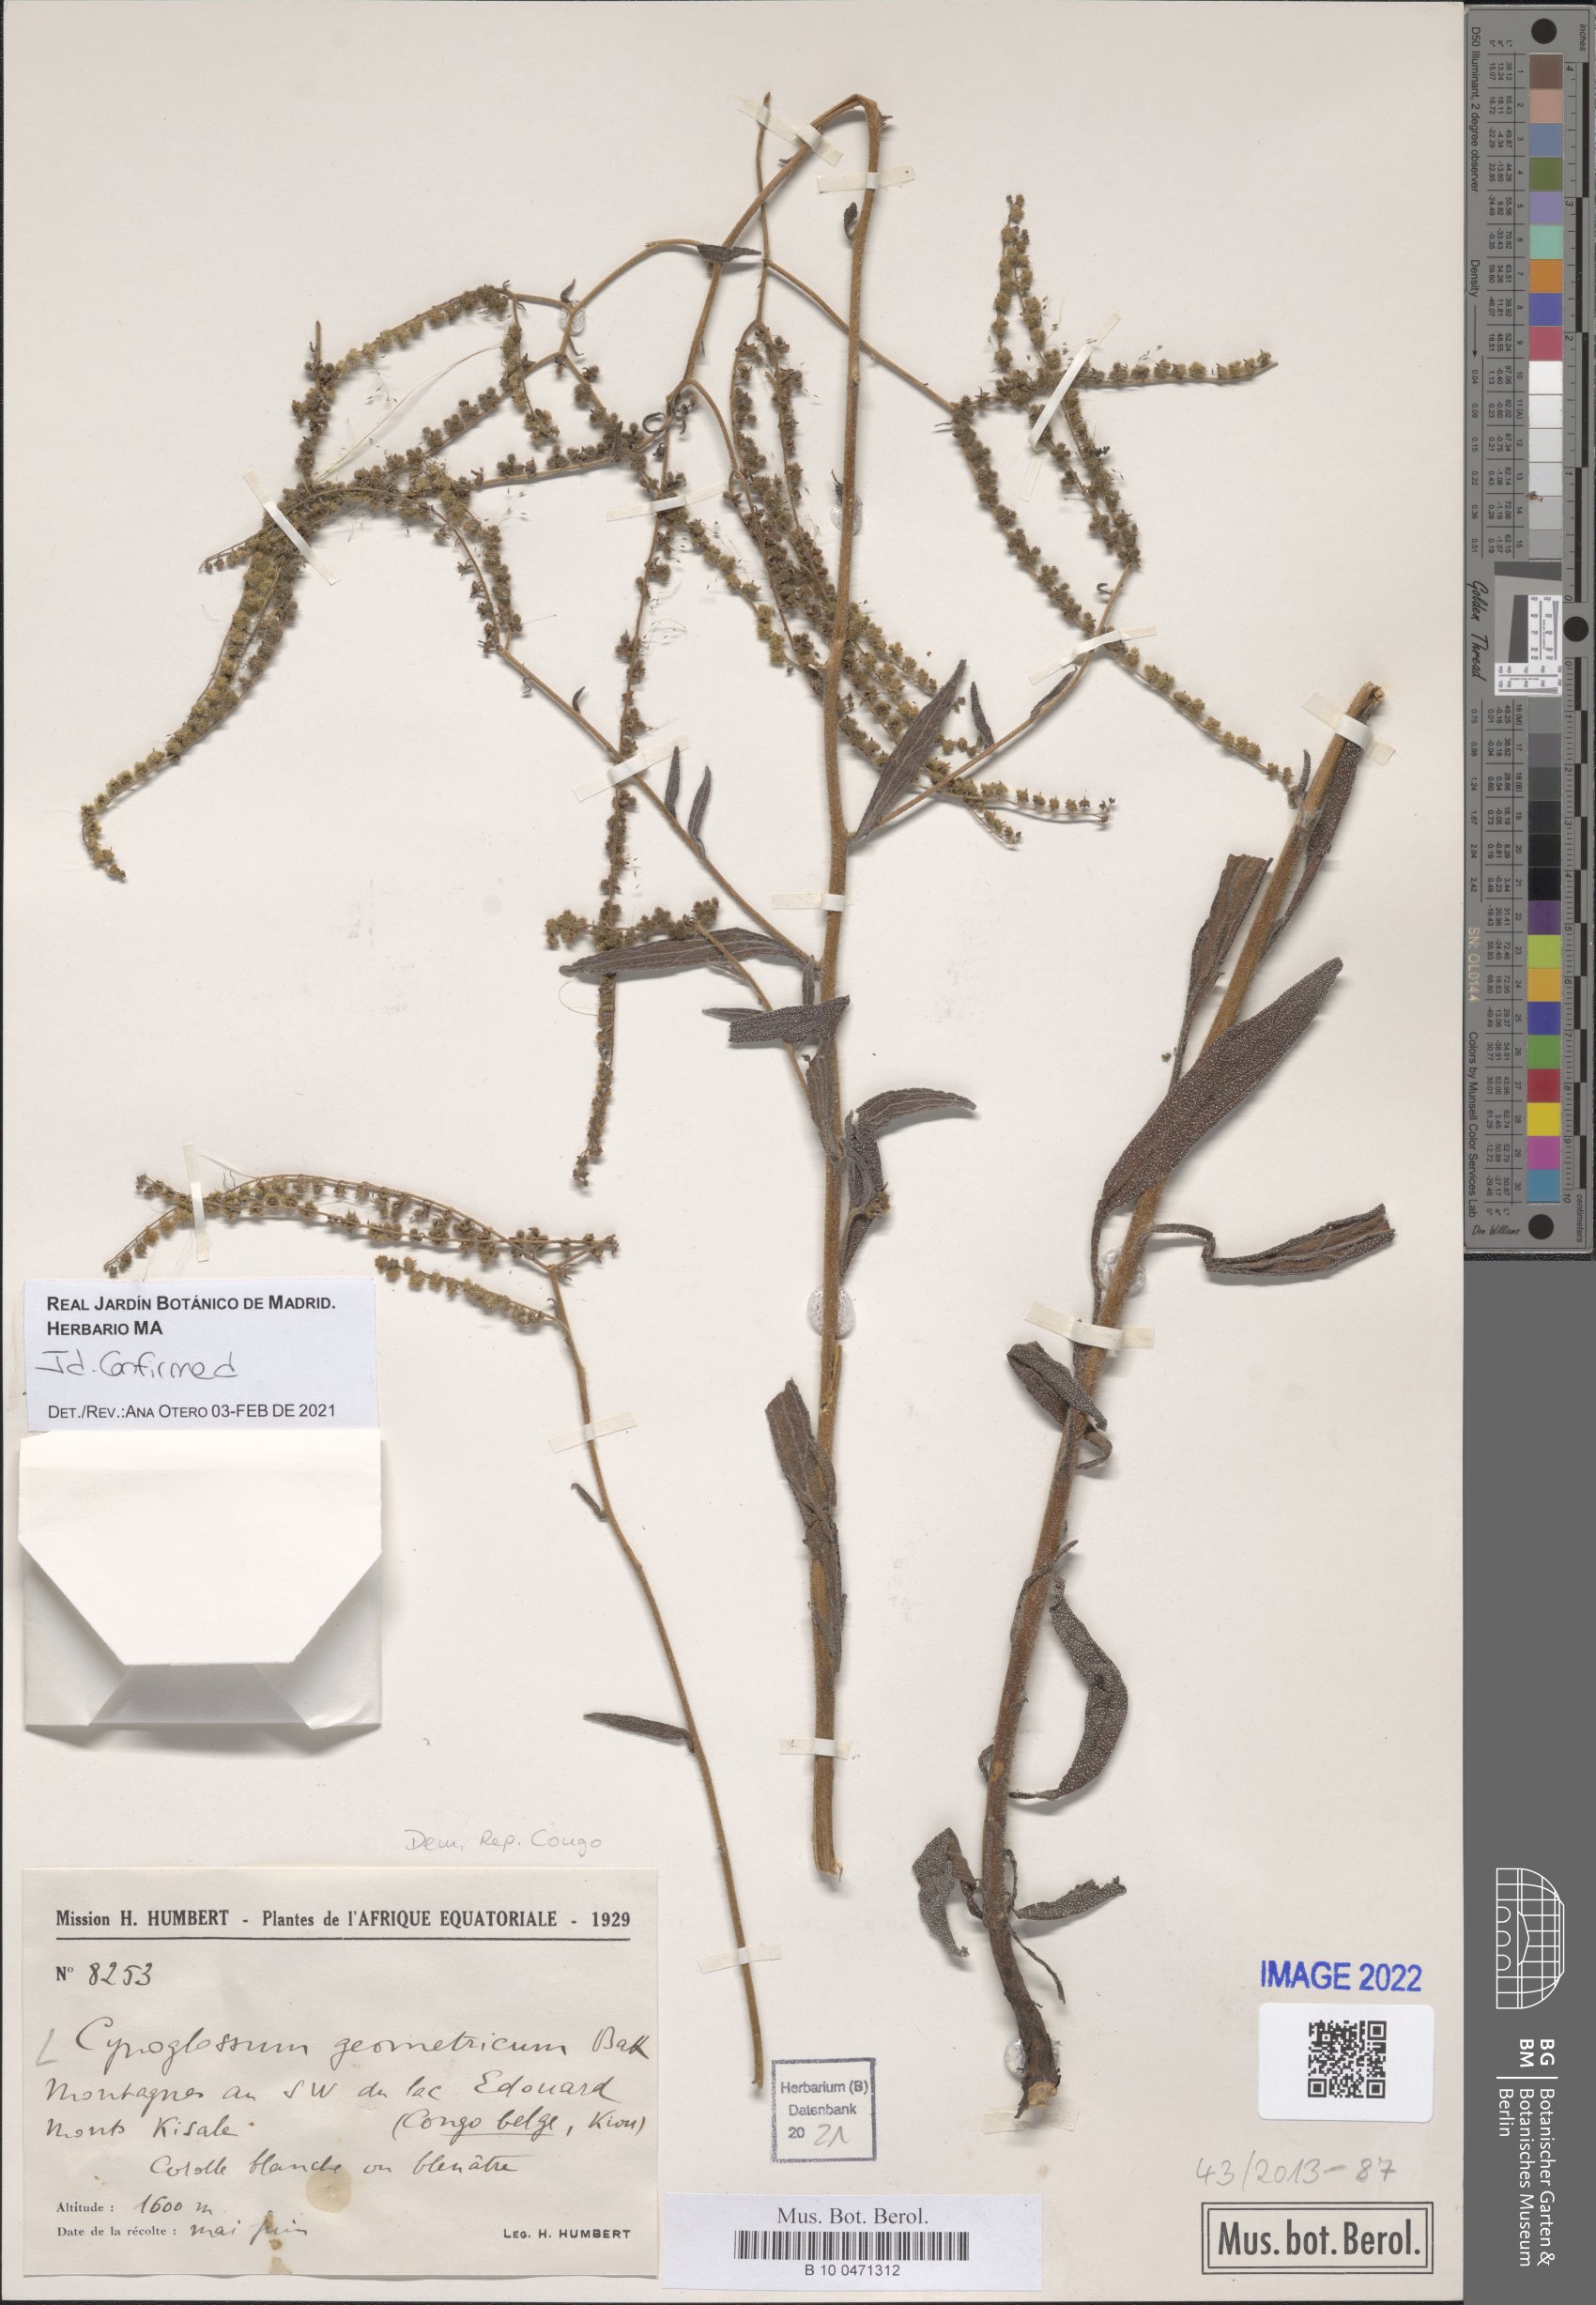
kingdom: Plantae
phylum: Tracheophyta
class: Magnoliopsida
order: Boraginales
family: Boraginaceae
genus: Paracynoglossum
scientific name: Paracynoglossum geometricum
